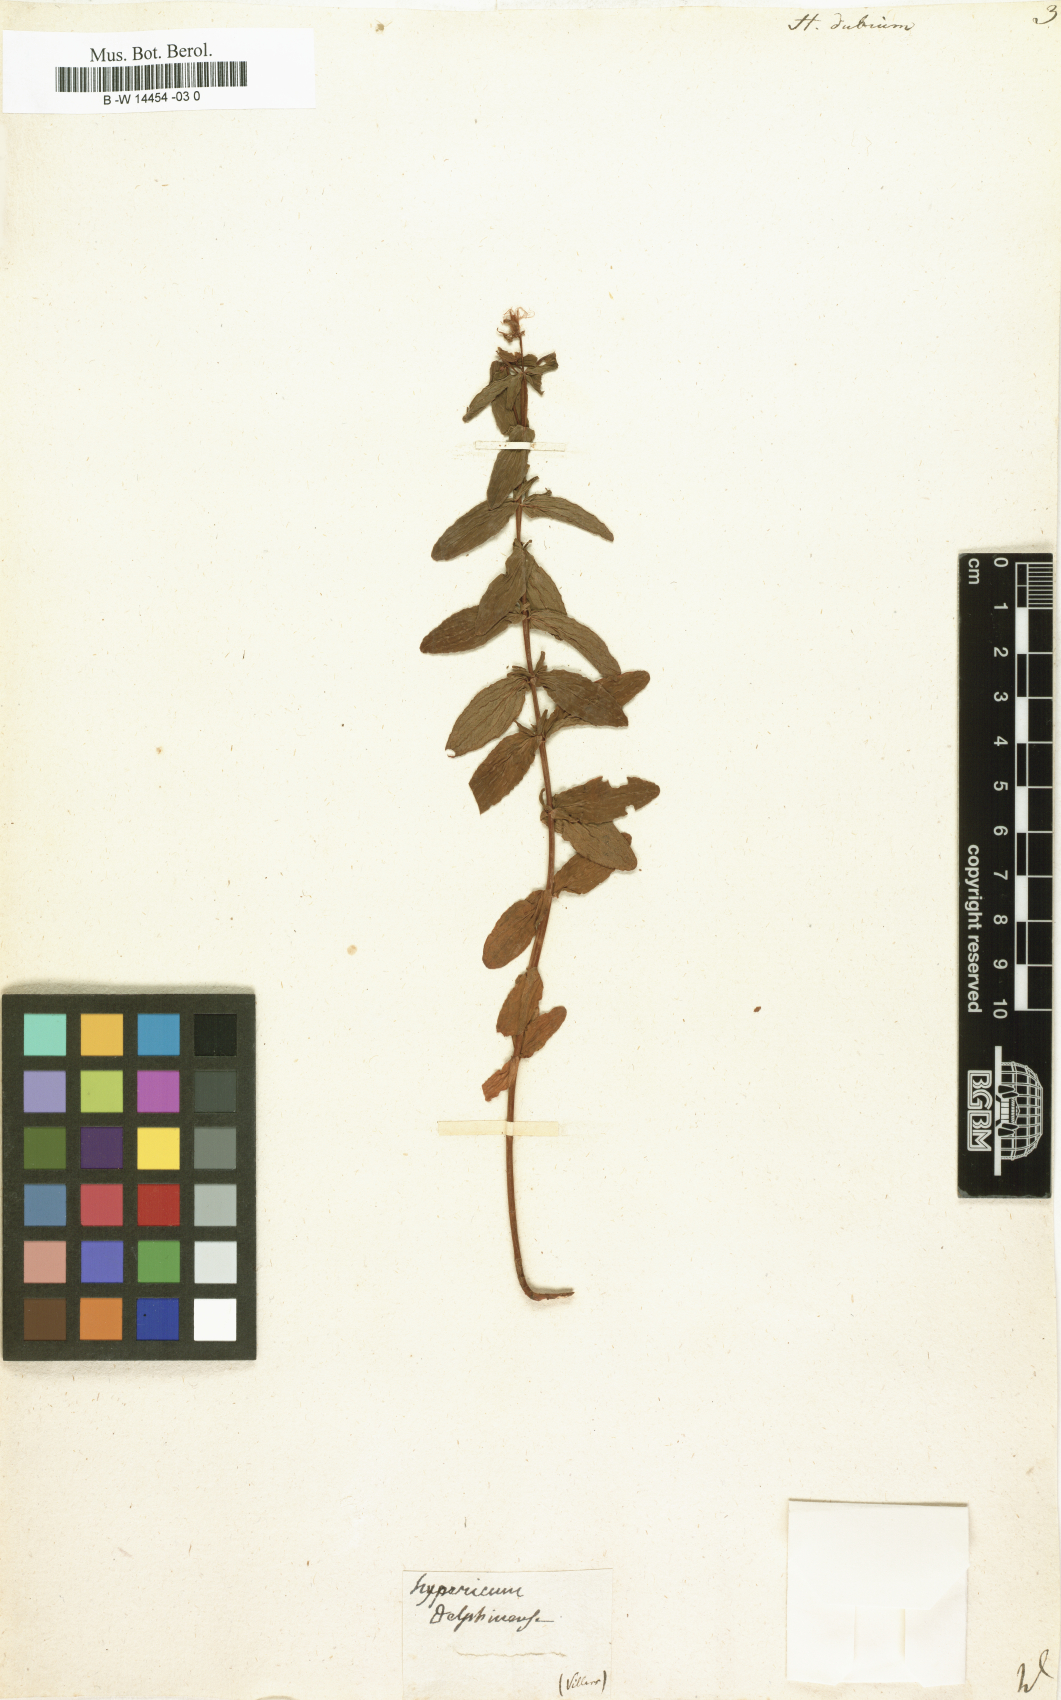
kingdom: Plantae
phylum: Tracheophyta
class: Magnoliopsida
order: Malpighiales
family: Hypericaceae
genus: Hypericum
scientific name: Hypericum dubium
